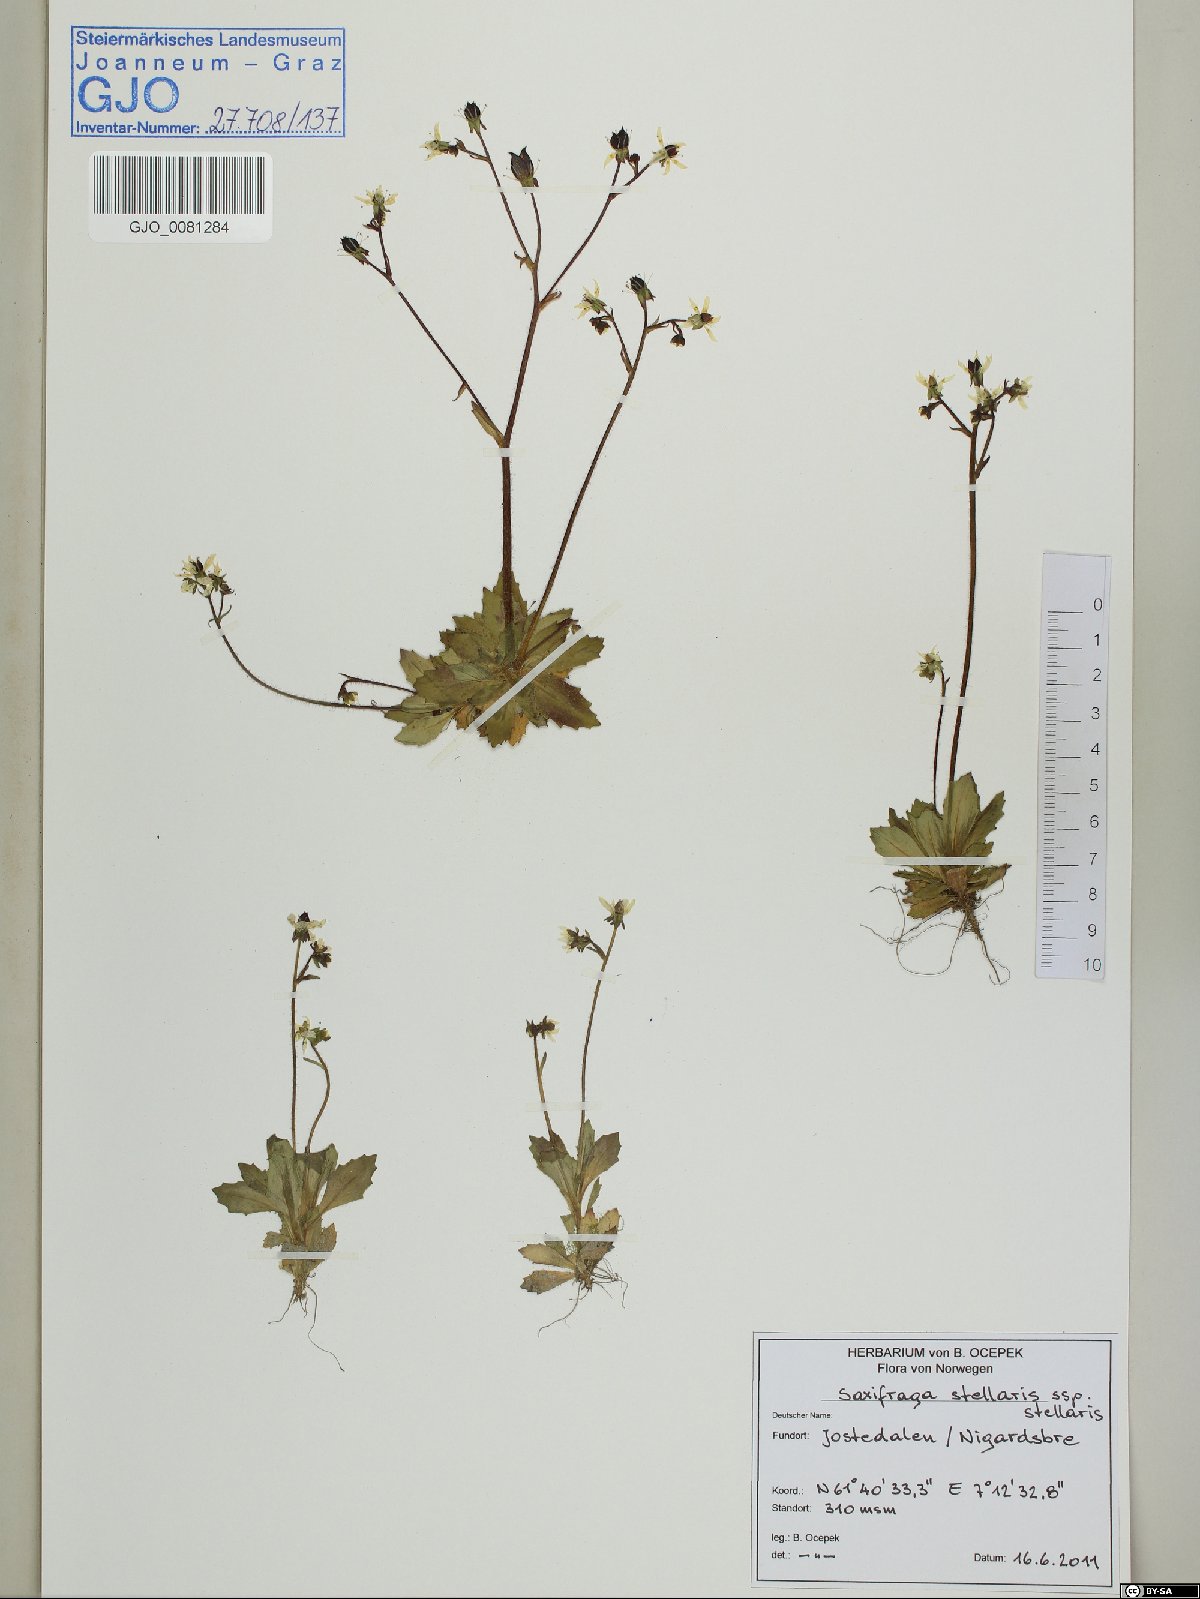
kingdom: Plantae
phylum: Tracheophyta
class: Magnoliopsida
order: Saxifragales
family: Saxifragaceae
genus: Micranthes
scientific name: Micranthes stellaris
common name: Starry saxifrage
